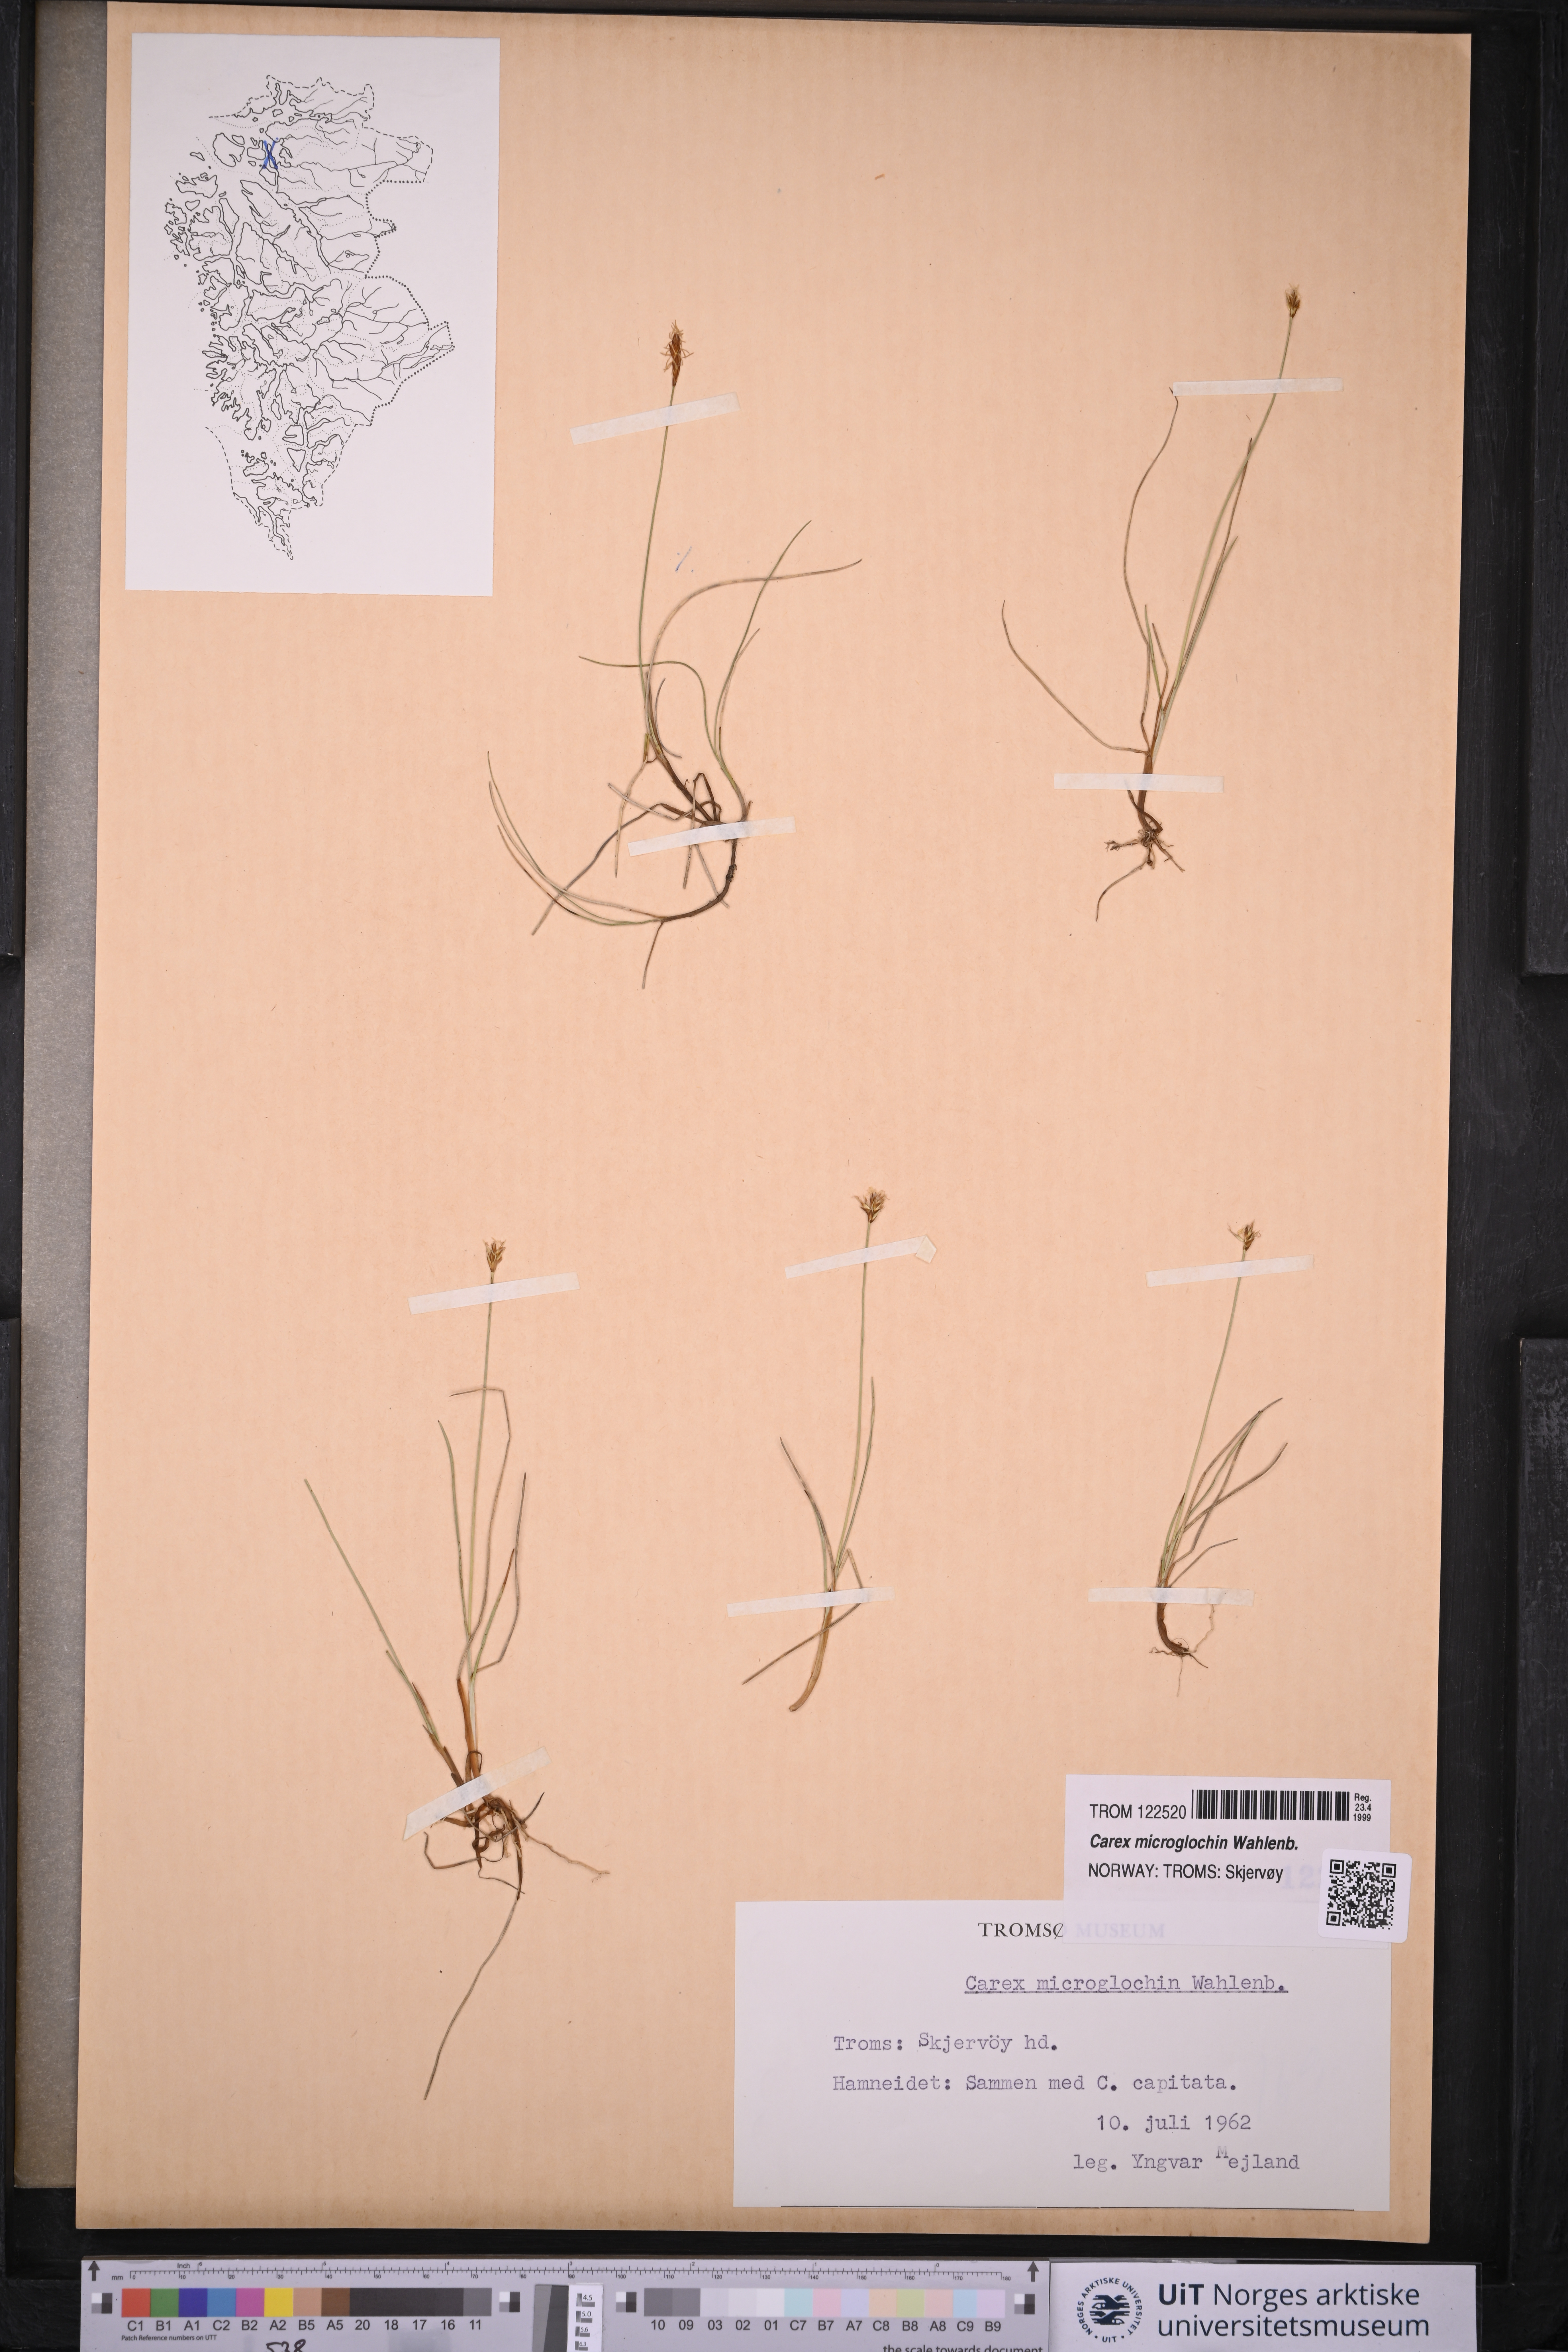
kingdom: Plantae
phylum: Tracheophyta
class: Liliopsida
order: Poales
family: Cyperaceae
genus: Carex
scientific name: Carex microglochin
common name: Bristle sedge
